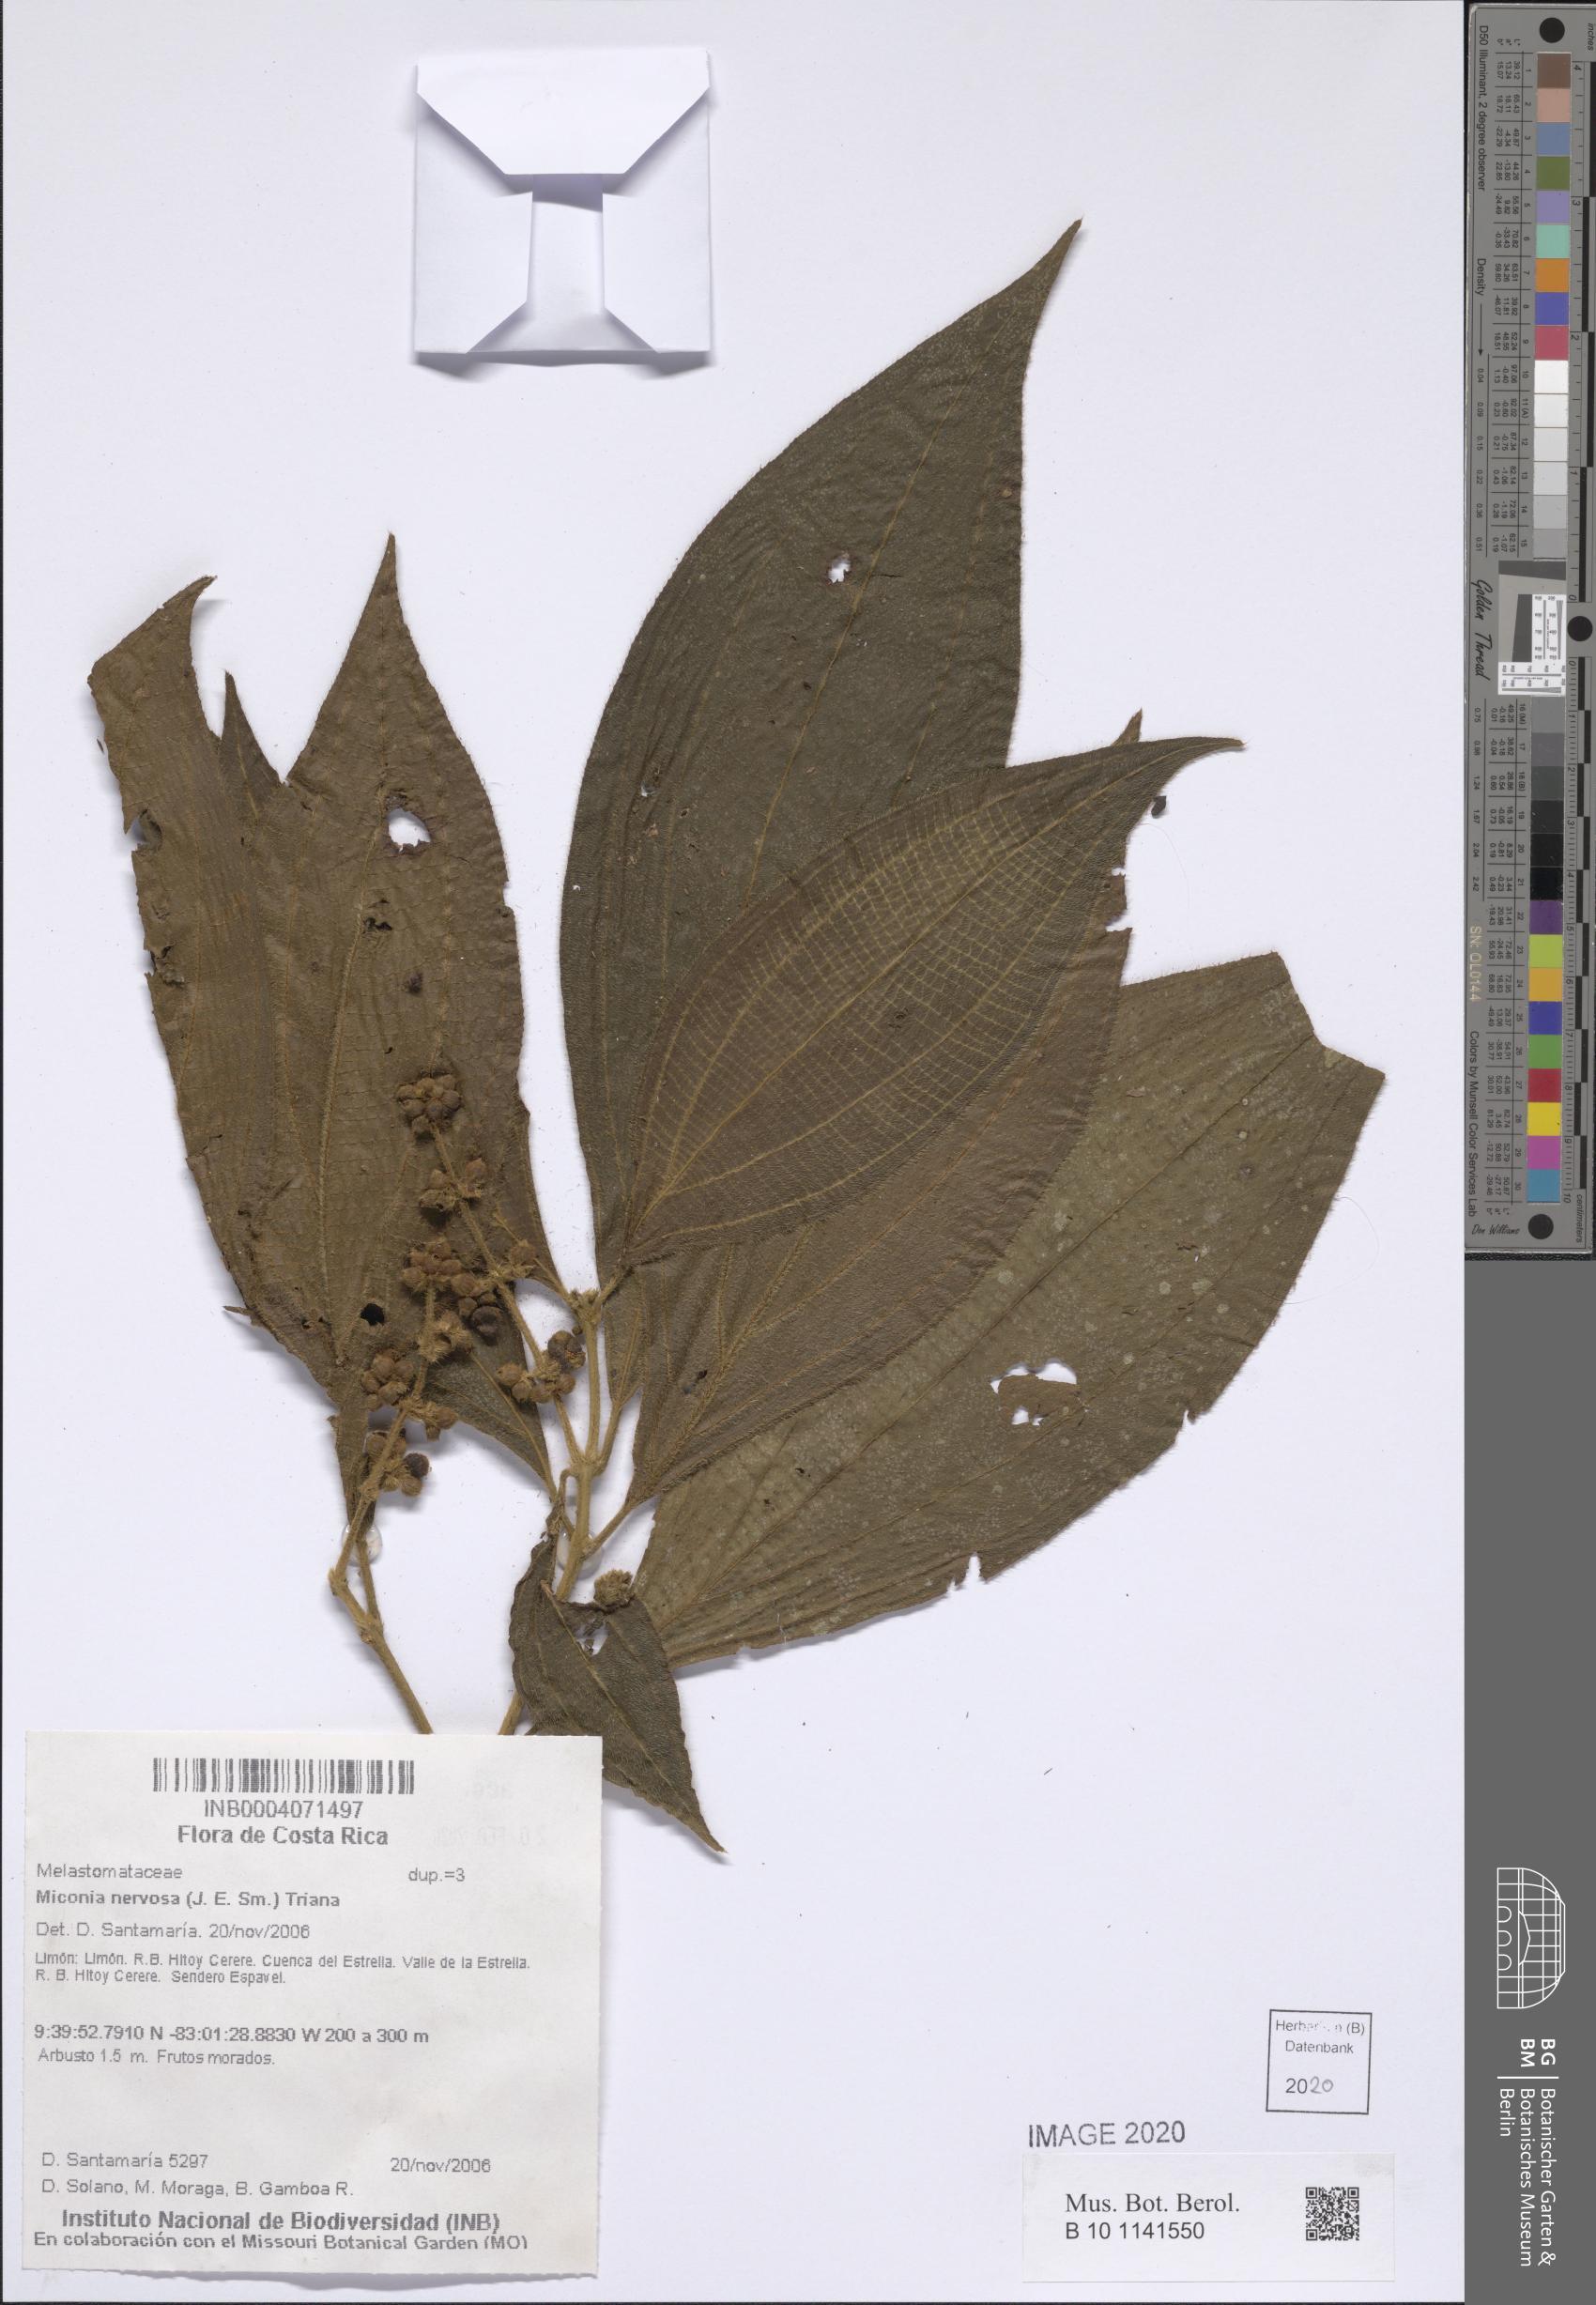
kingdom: Plantae
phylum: Tracheophyta
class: Magnoliopsida
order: Myrtales
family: Melastomataceae
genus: Miconia
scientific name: Miconia nervosa
